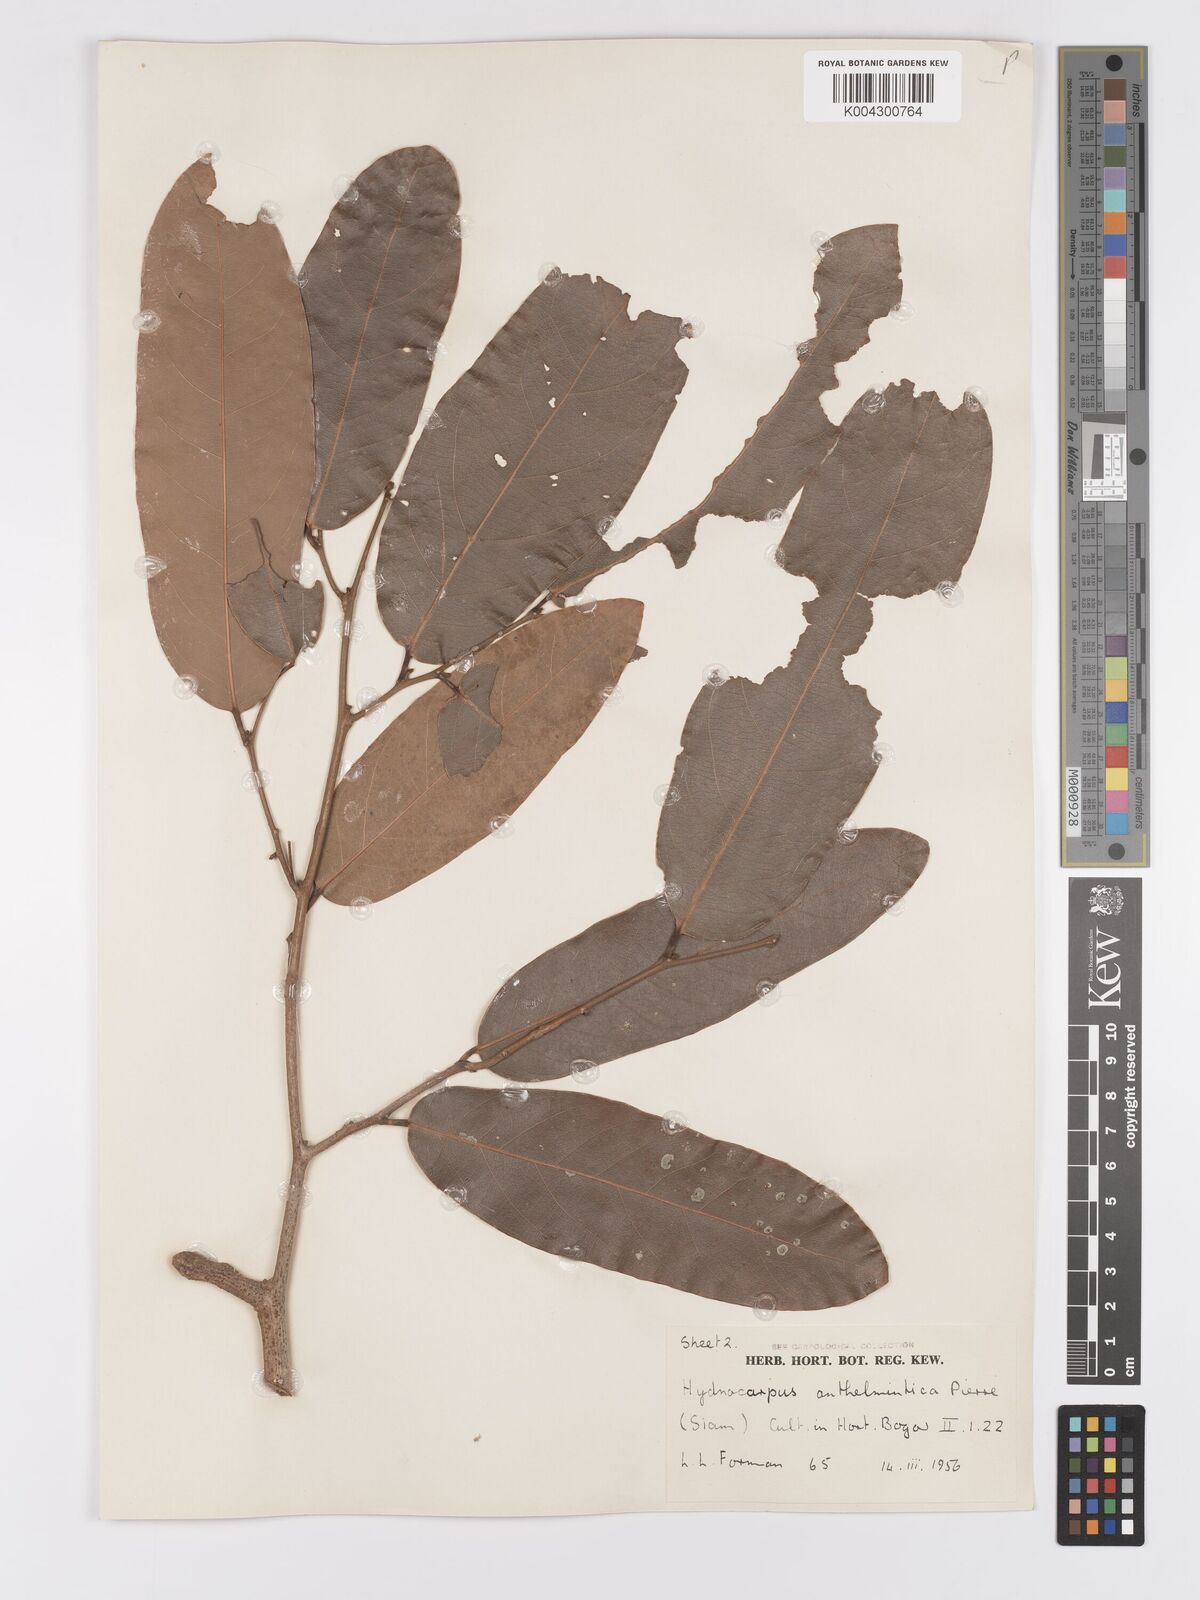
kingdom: Plantae
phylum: Tracheophyta
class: Magnoliopsida
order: Malpighiales
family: Achariaceae
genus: Hydnocarpus
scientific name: Hydnocarpus castaneus
